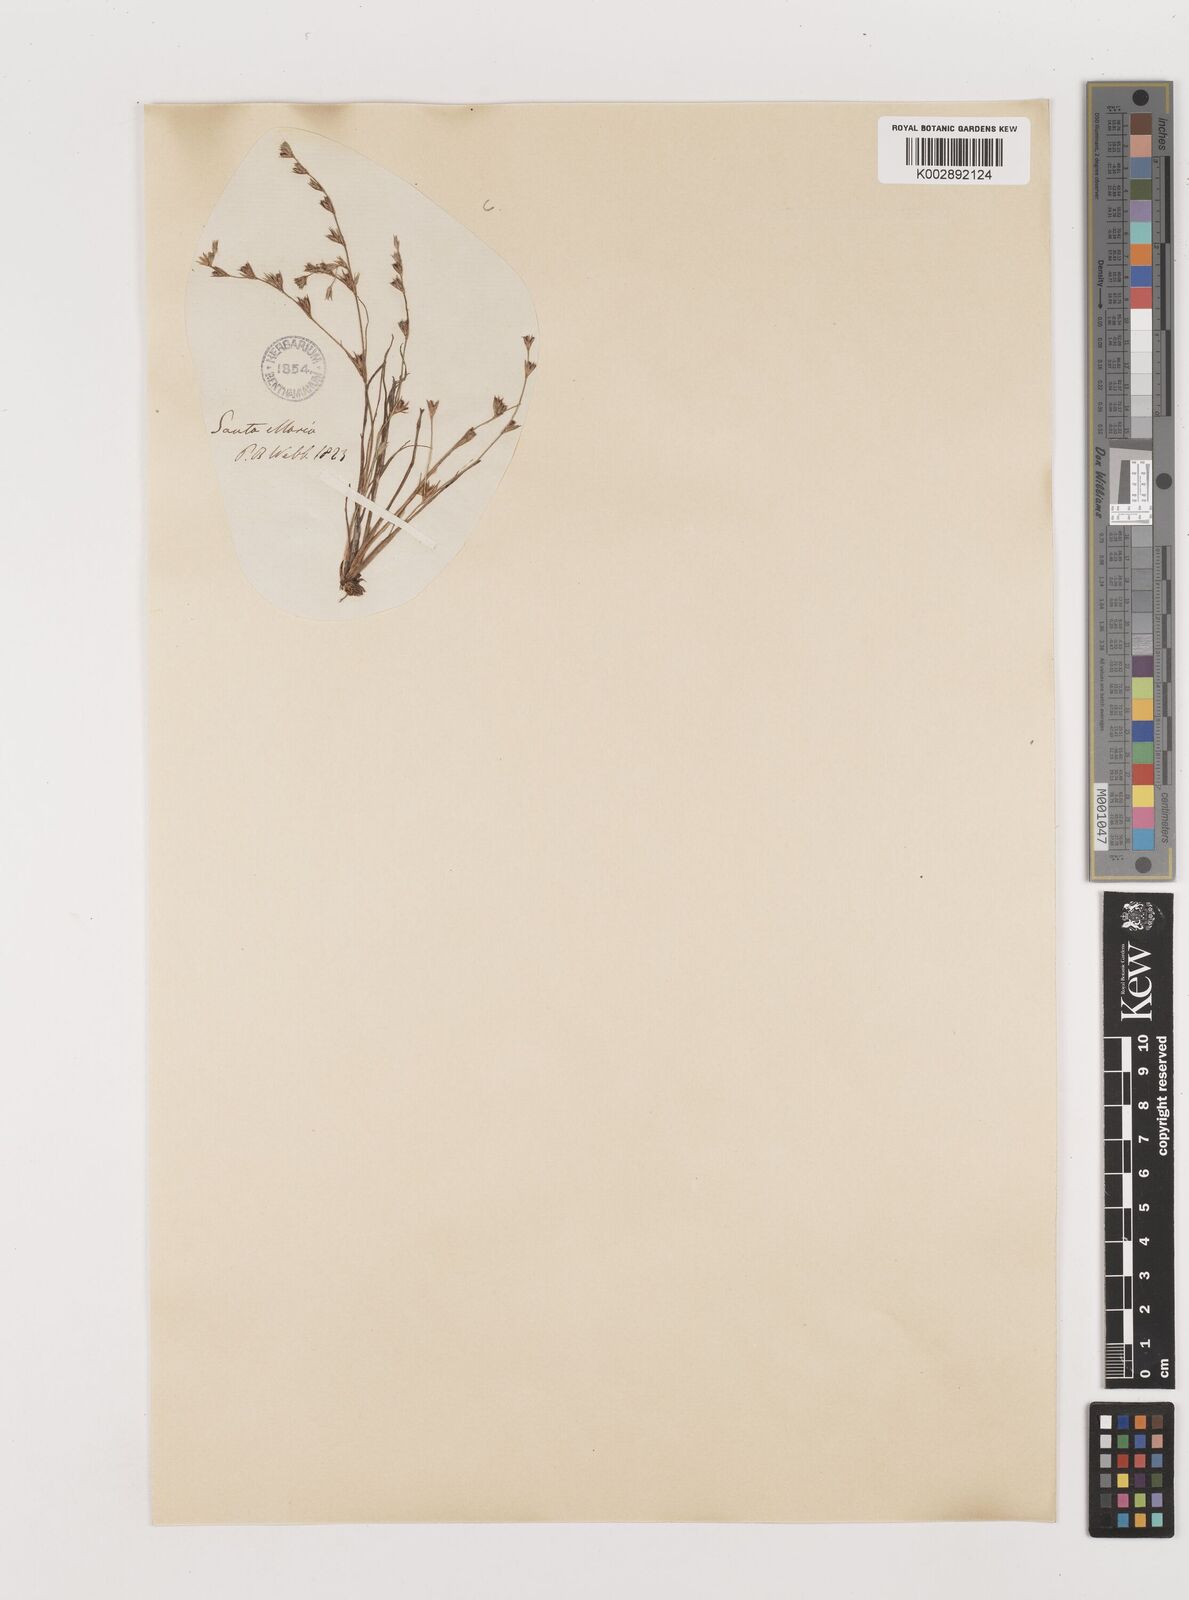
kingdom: Plantae
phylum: Tracheophyta
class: Liliopsida
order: Poales
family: Juncaceae
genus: Juncus
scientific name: Juncus bufonius
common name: Toad rush
